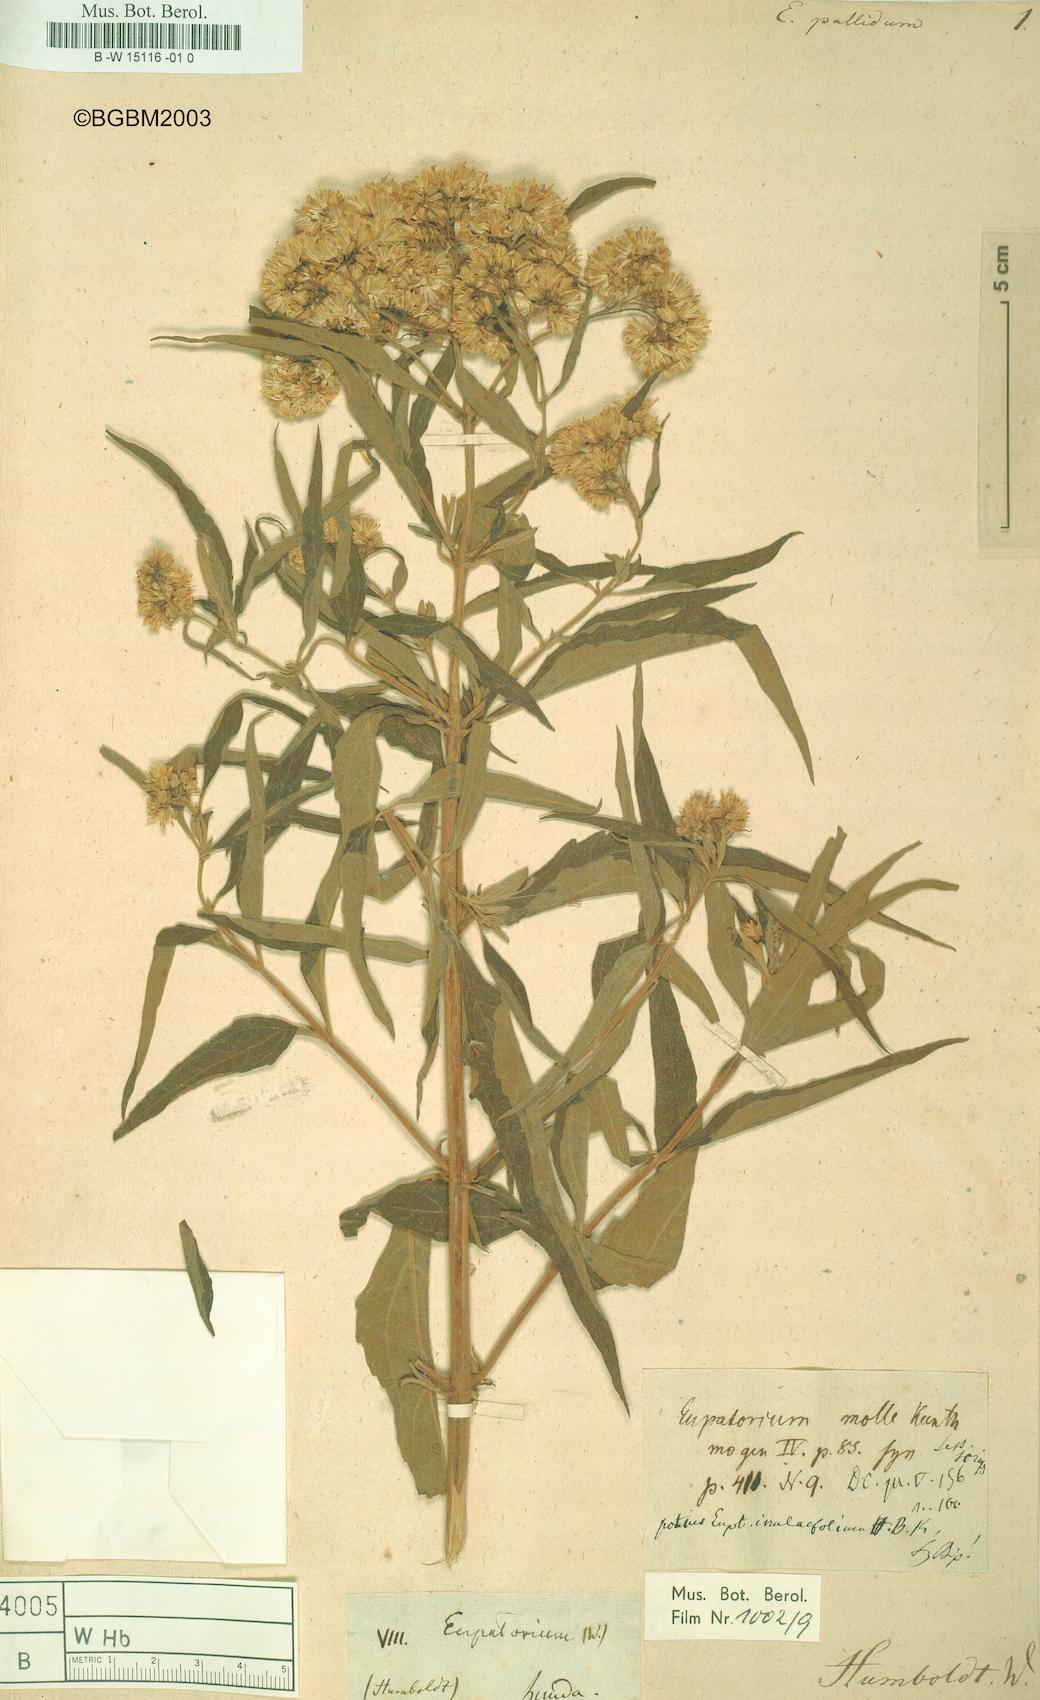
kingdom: Plantae
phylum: Tracheophyta
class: Magnoliopsida
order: Asterales
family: Asteraceae
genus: Austroeupatorium
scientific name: Austroeupatorium inulifolium
